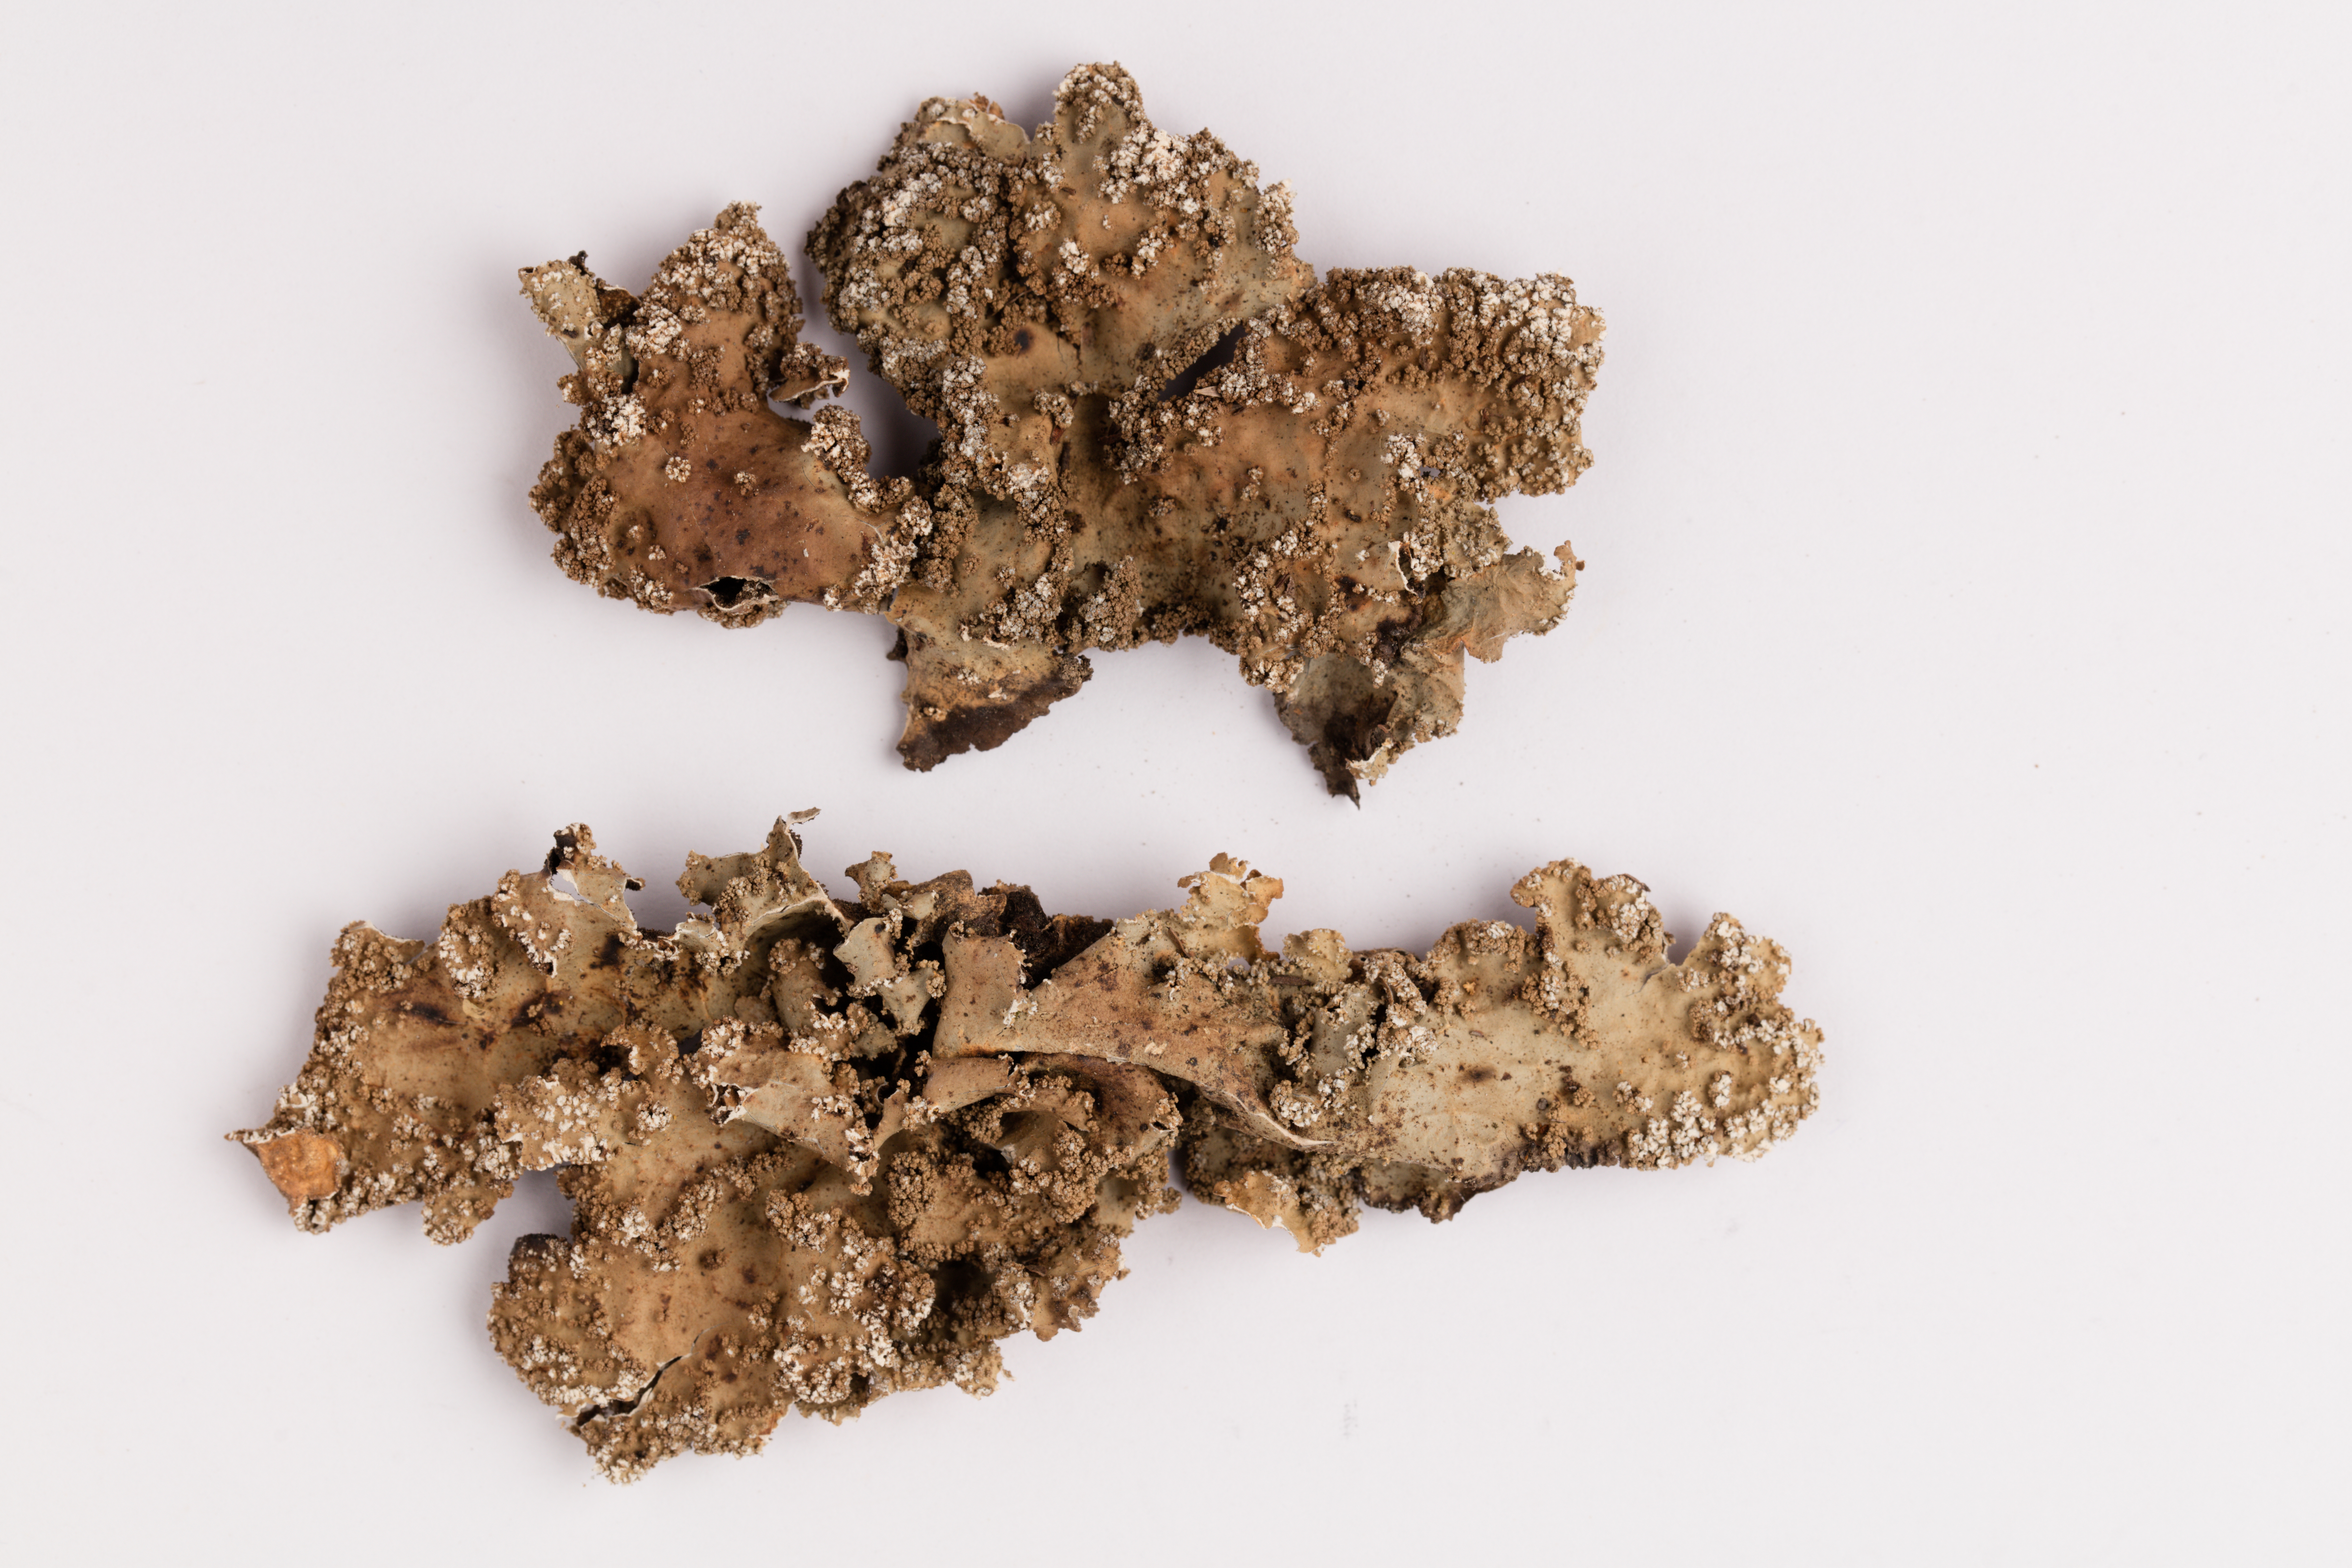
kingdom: Fungi
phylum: Ascomycota
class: Lecanoromycetes
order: Peltigerales
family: Lobariaceae
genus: Pseudocyphellaria
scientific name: Pseudocyphellaria bartlettii
